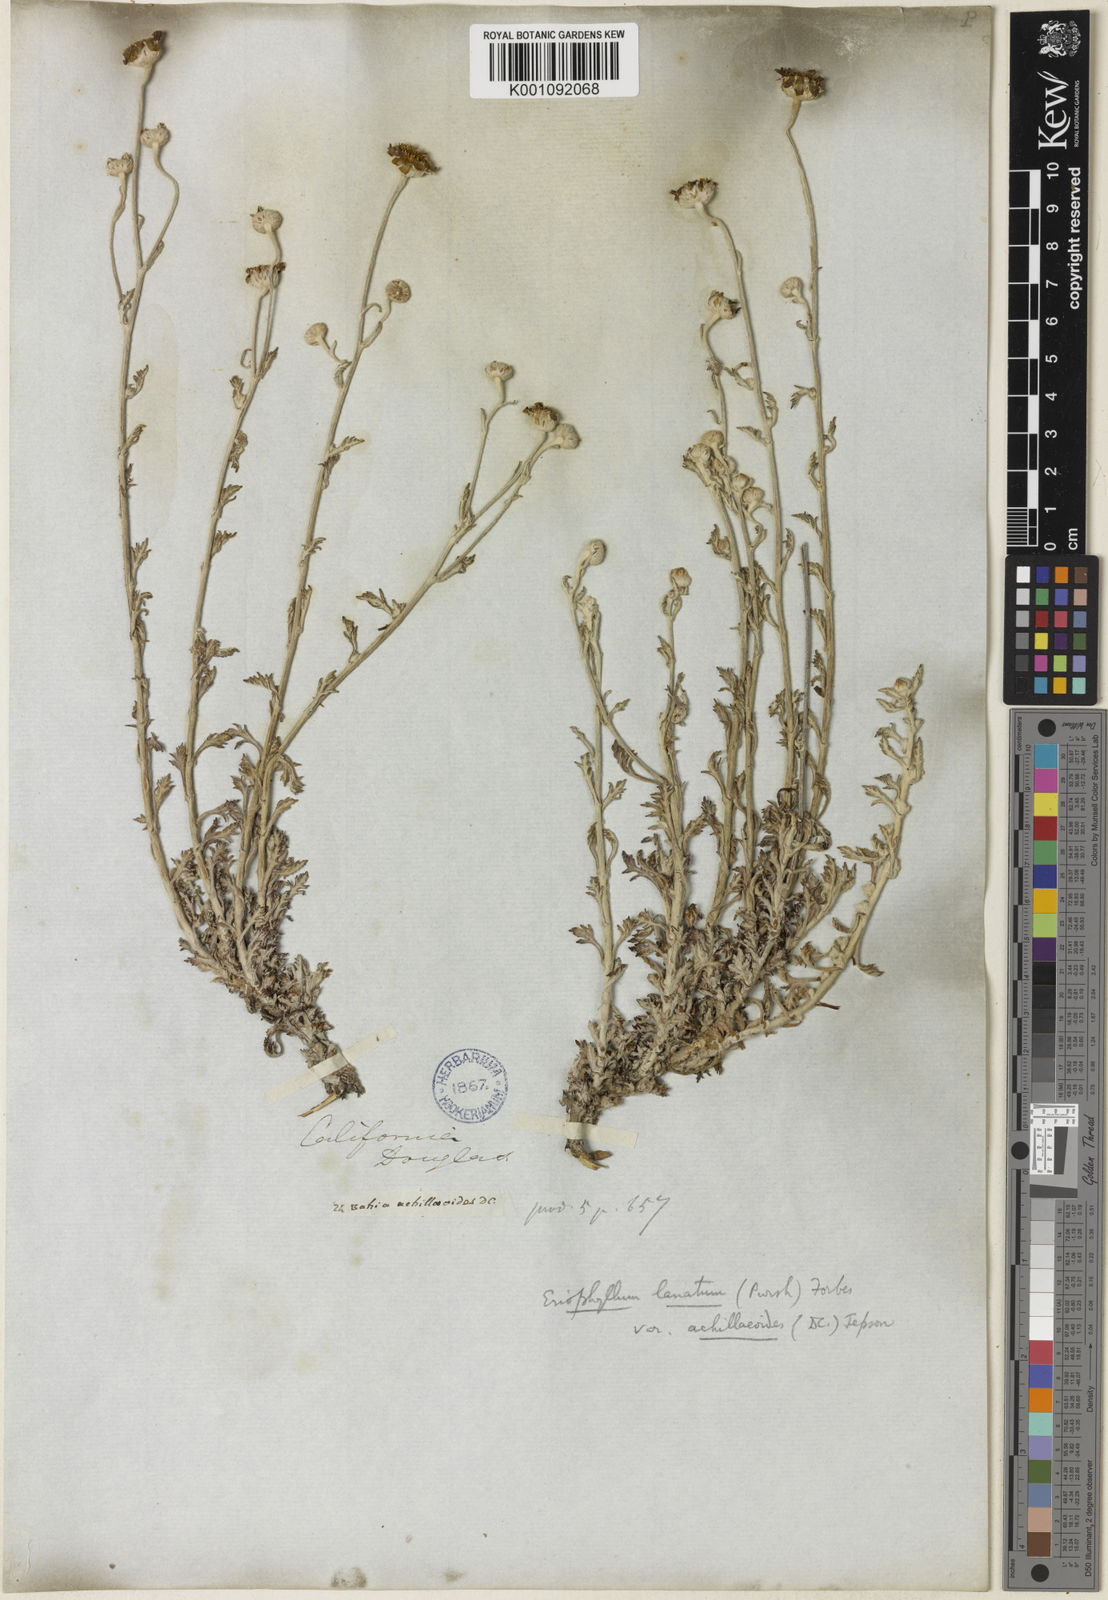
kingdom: Plantae
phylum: Tracheophyta
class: Magnoliopsida
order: Asterales
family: Asteraceae
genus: Eriophyllum
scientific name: Eriophyllum lanatum
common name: Common woolly-sunflower
